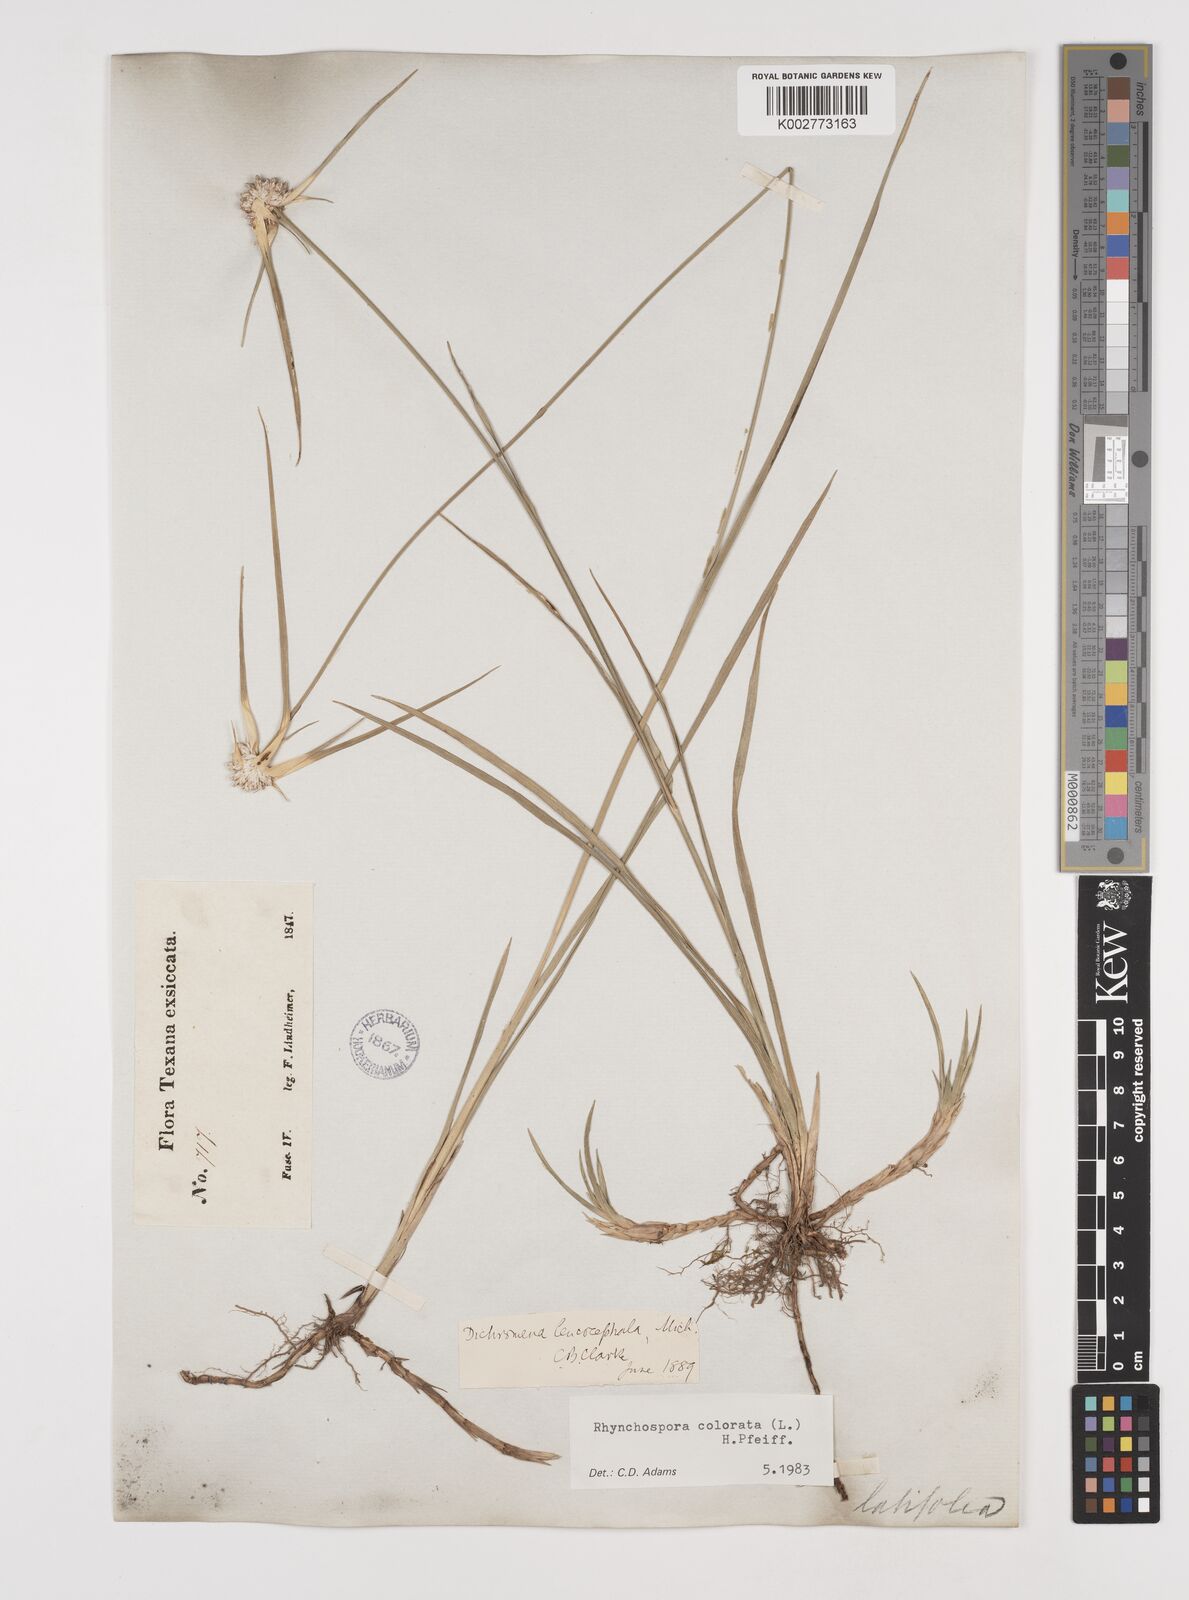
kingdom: Plantae
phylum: Tracheophyta
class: Liliopsida
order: Poales
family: Cyperaceae
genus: Rhynchospora
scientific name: Rhynchospora colorata
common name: Star sedge
